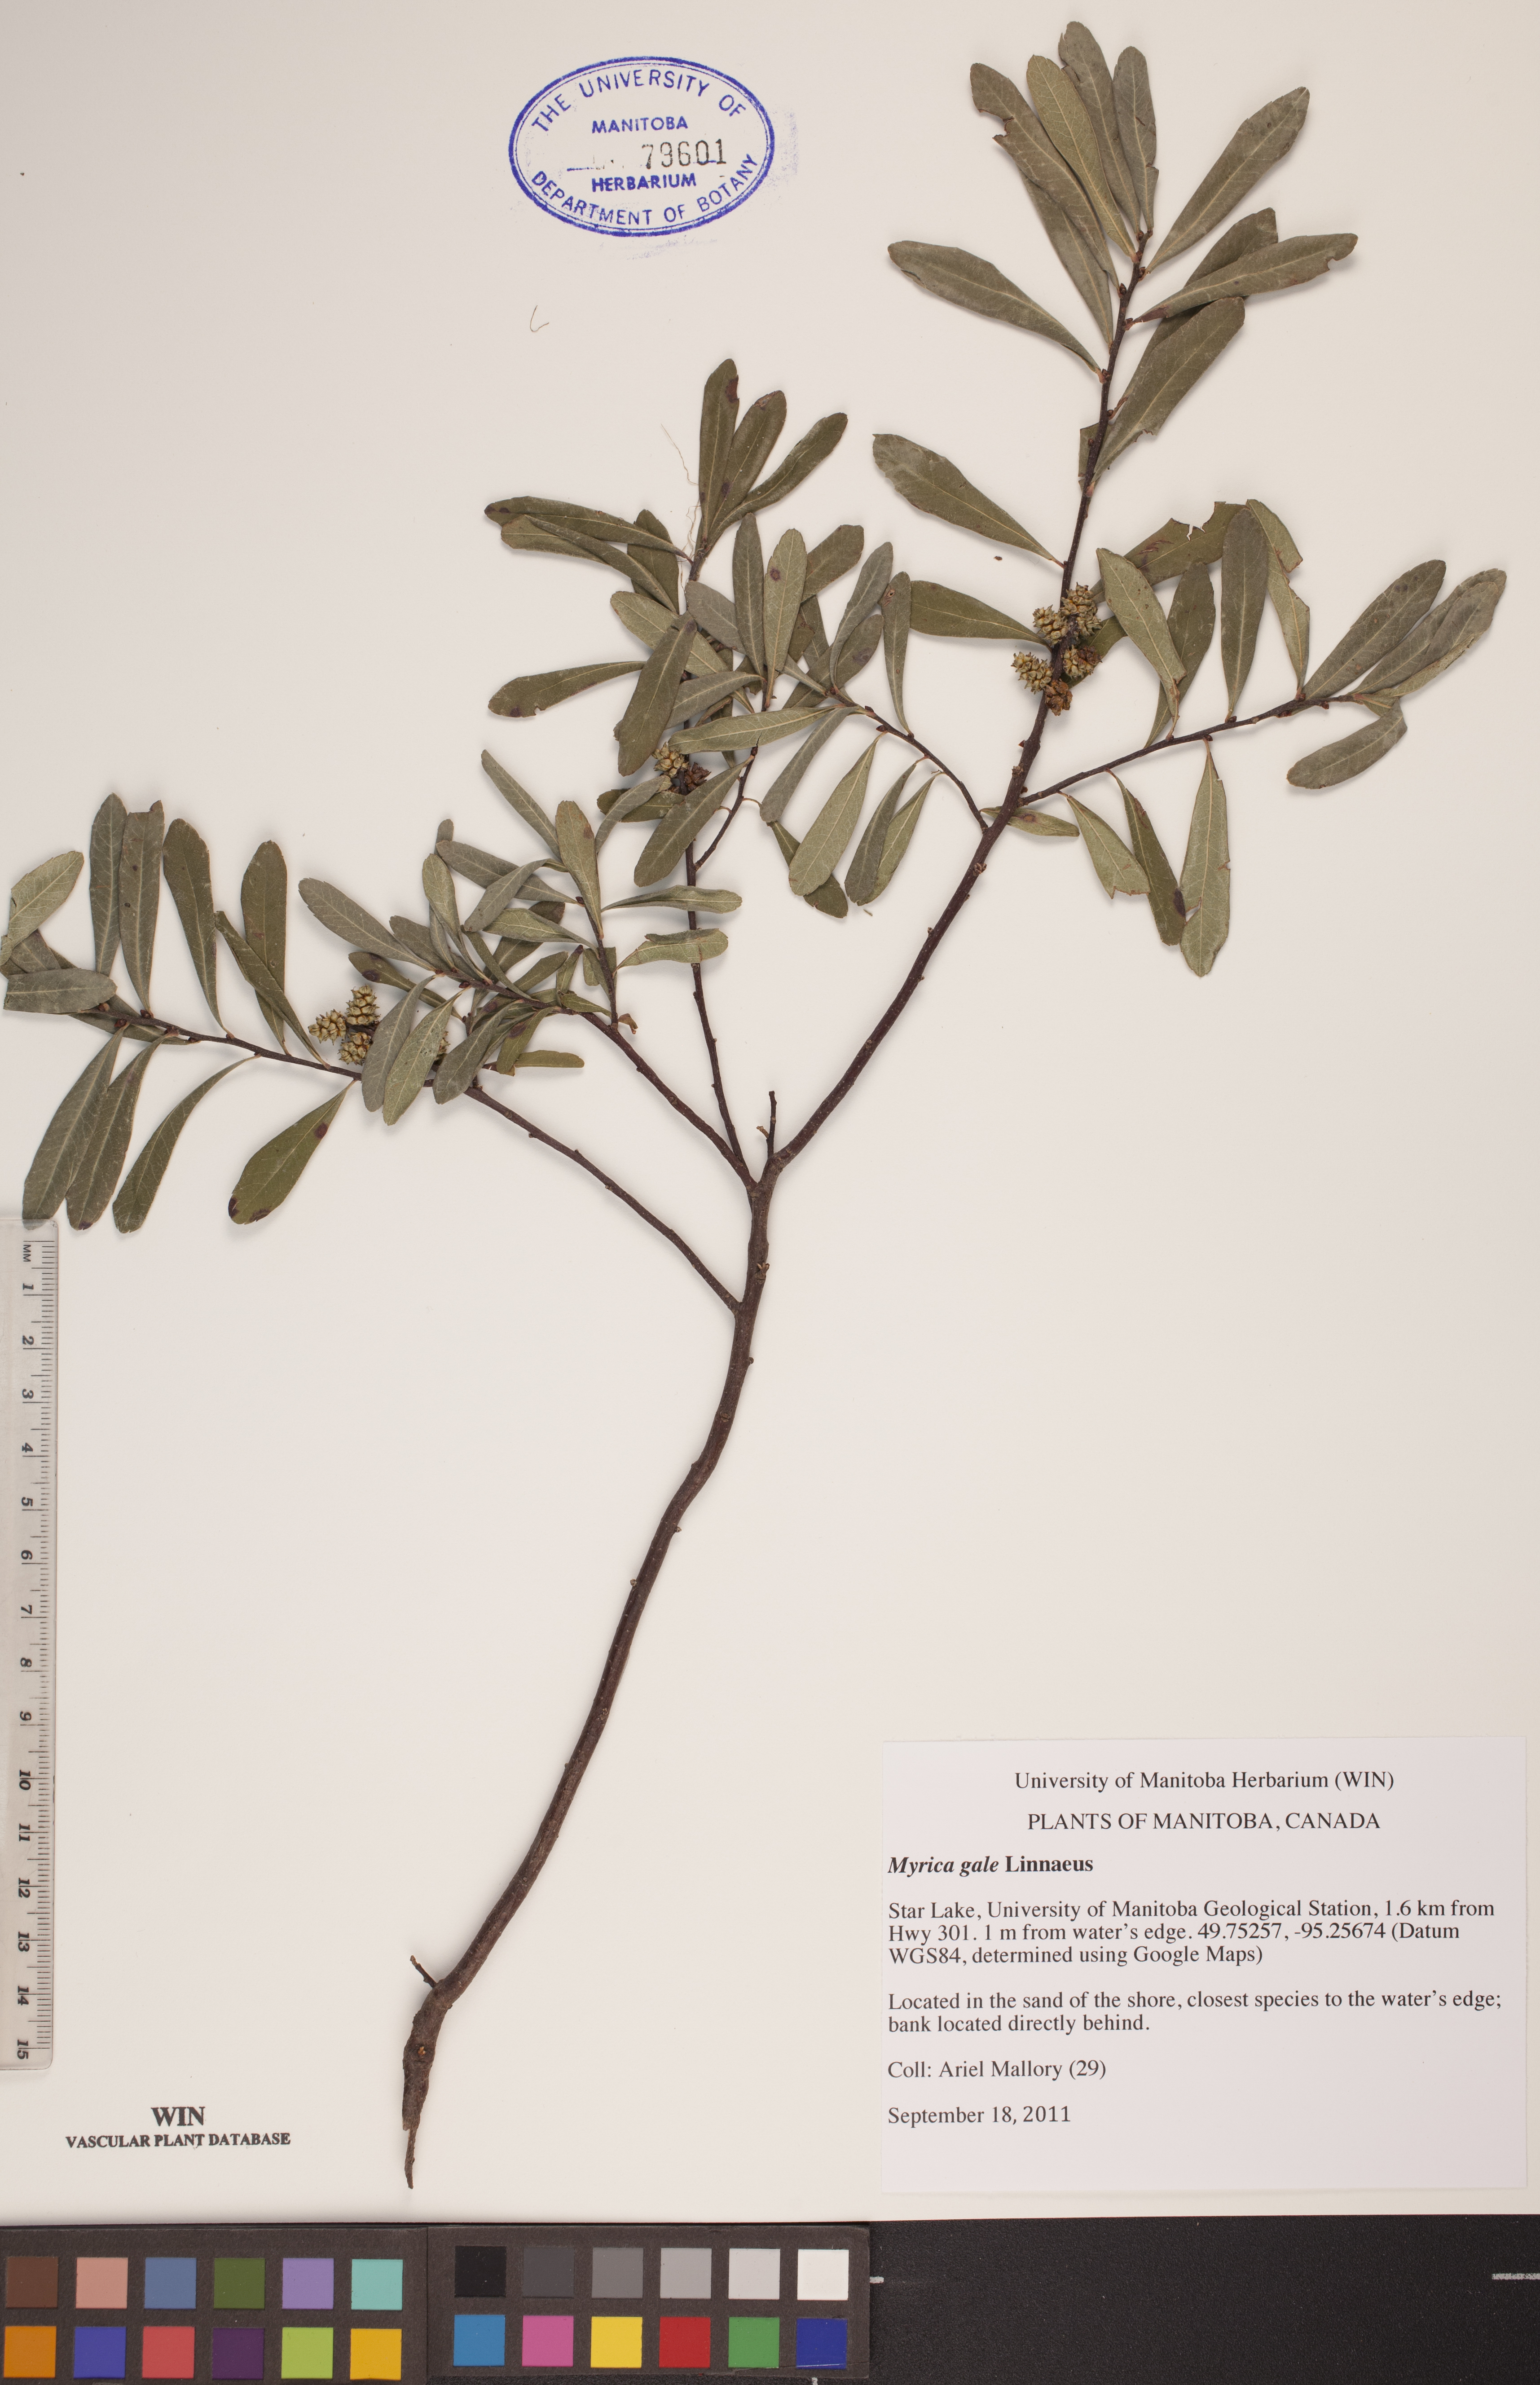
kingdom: Plantae
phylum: Tracheophyta
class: Magnoliopsida
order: Fagales
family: Myricaceae
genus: Myrica
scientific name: Myrica gale
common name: Sweet gale
